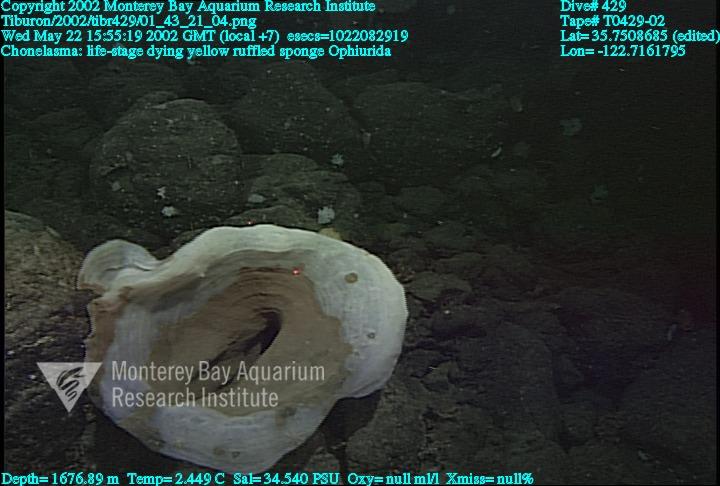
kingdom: Animalia
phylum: Porifera
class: Hexactinellida
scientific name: Hexactinellida
